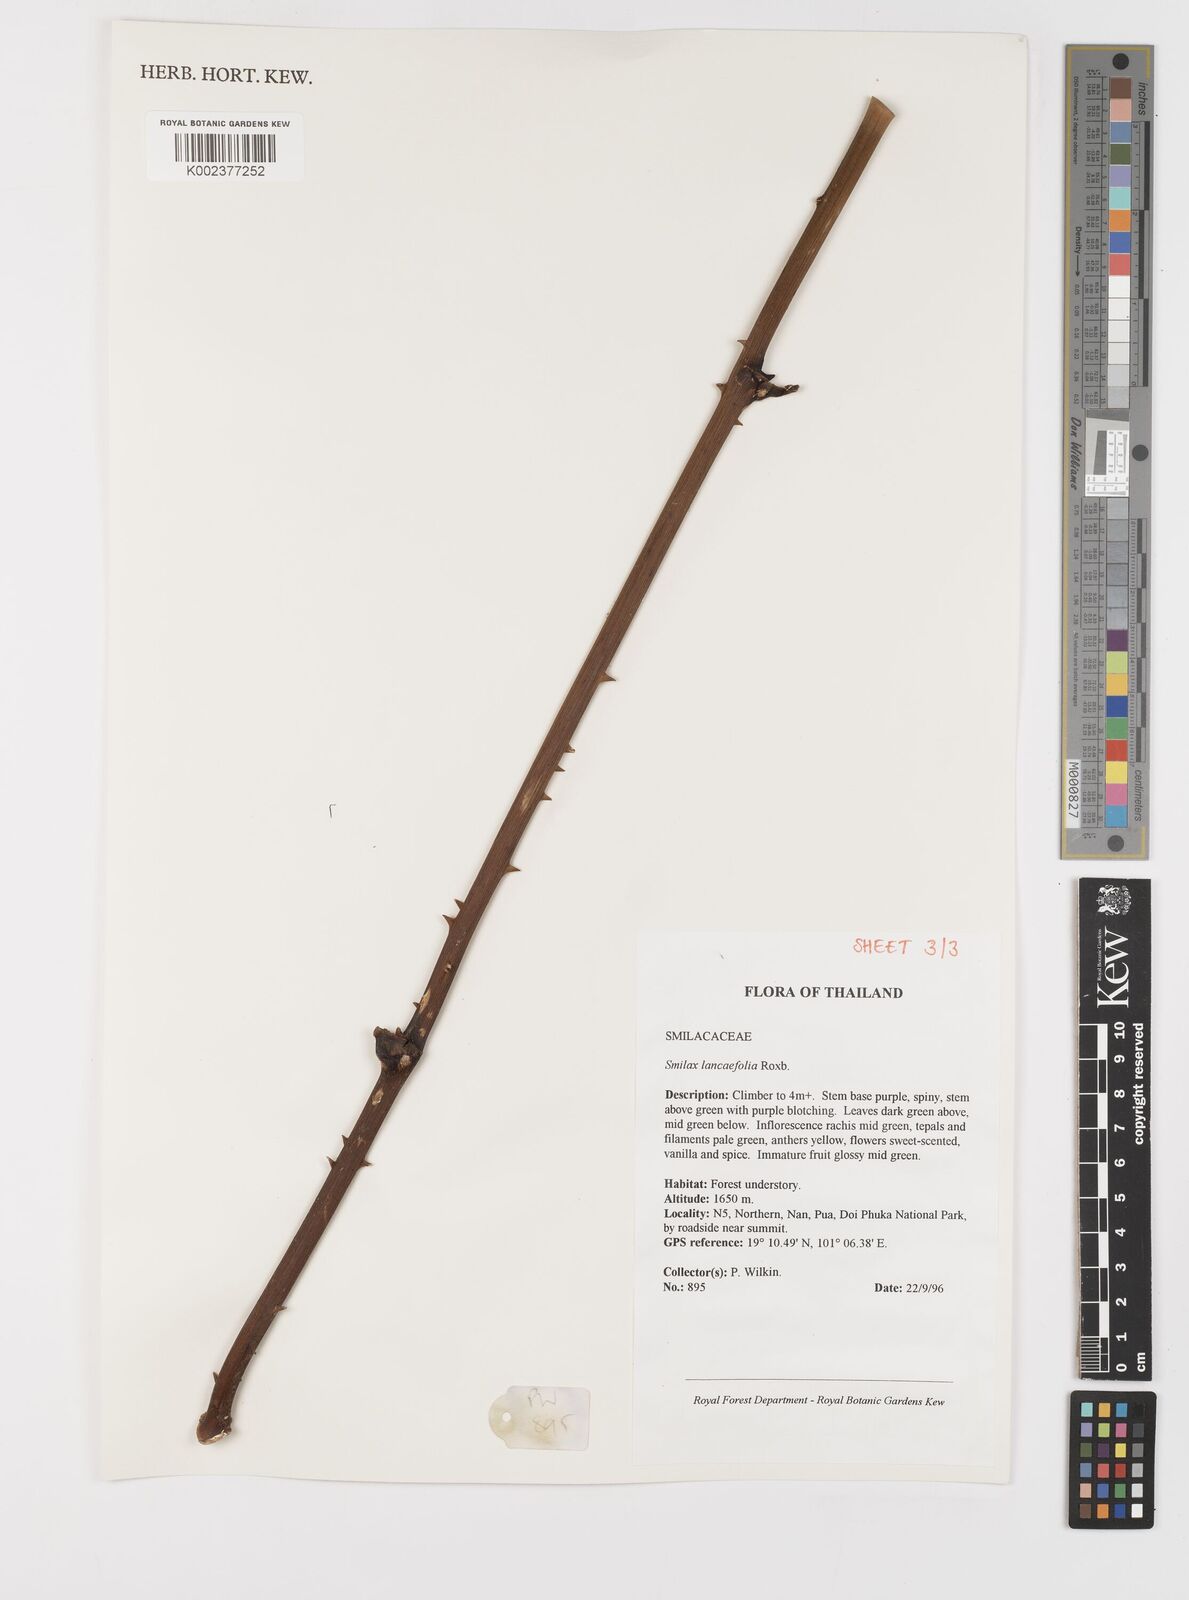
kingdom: Plantae
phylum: Tracheophyta
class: Liliopsida
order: Liliales
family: Smilacaceae
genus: Smilax
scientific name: Smilax lanceifolia
